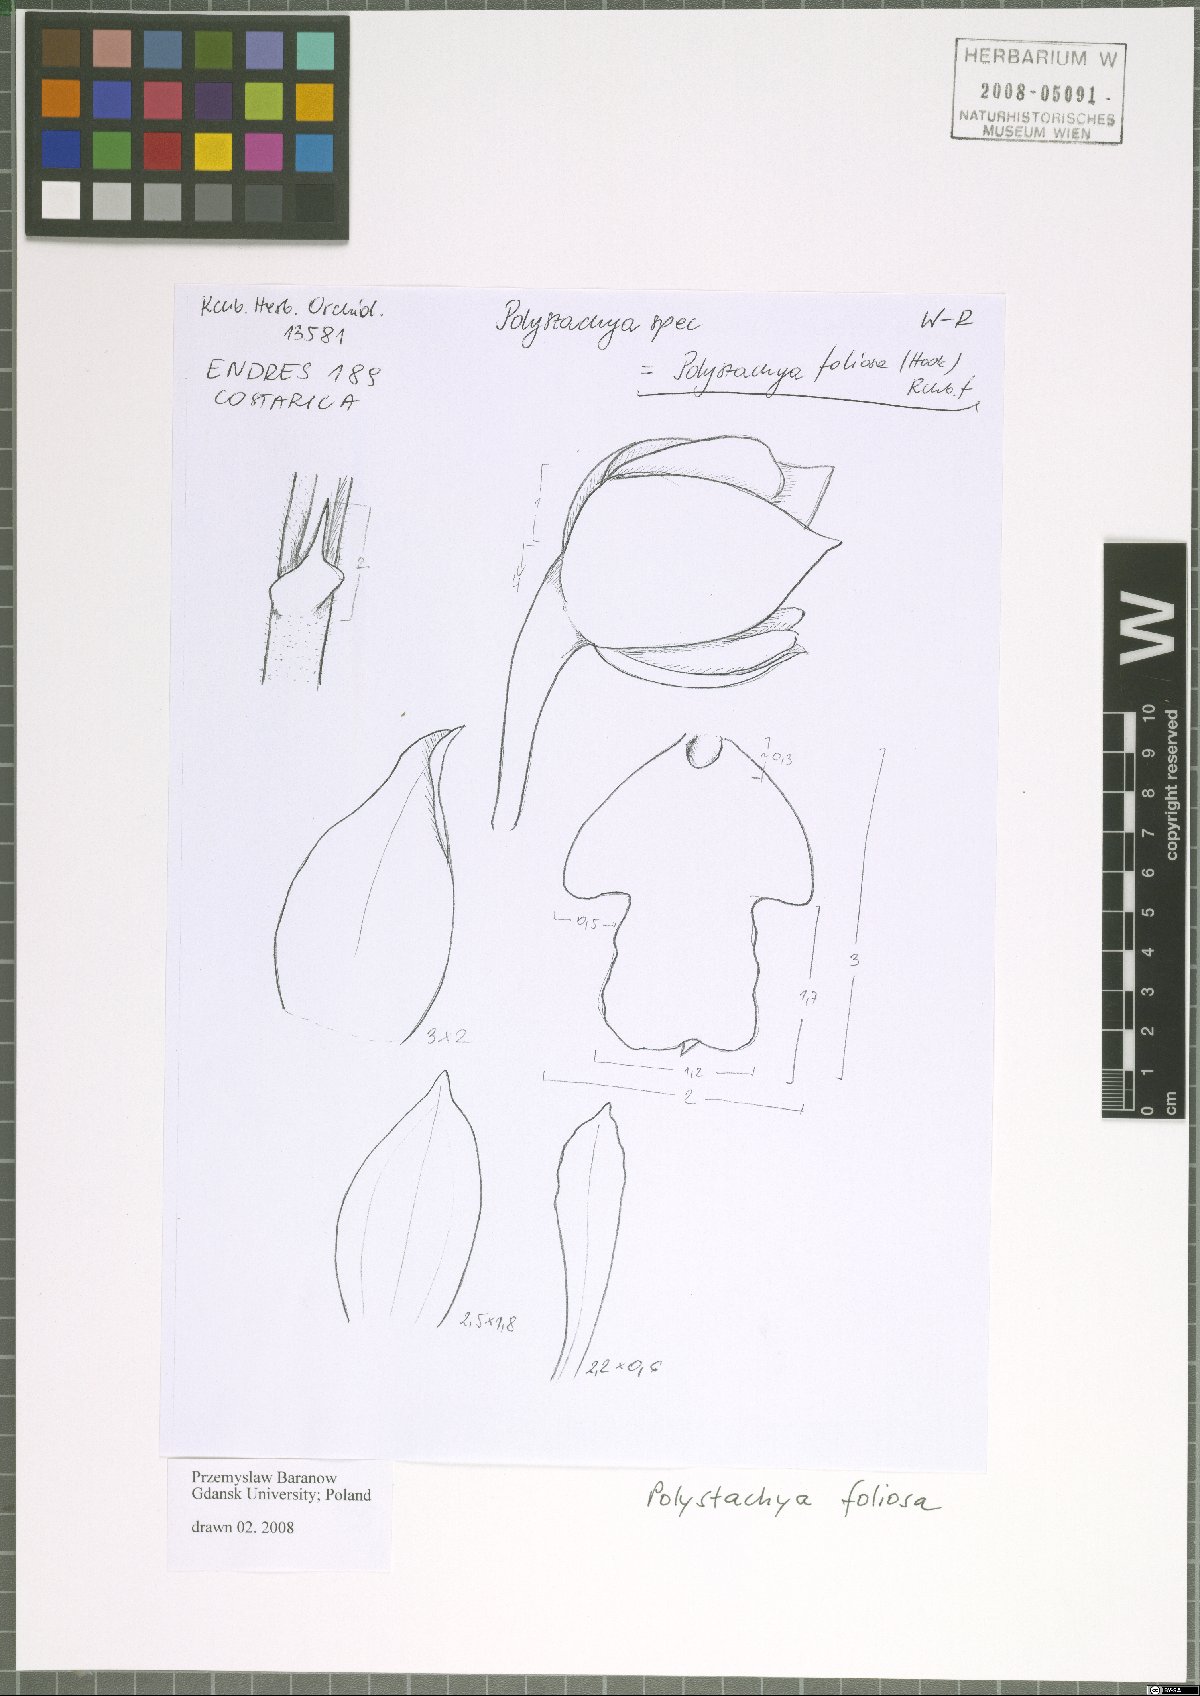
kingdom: Plantae
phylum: Tracheophyta
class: Liliopsida
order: Asparagales
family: Orchidaceae
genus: Polystachya
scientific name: Polystachya foliosa
